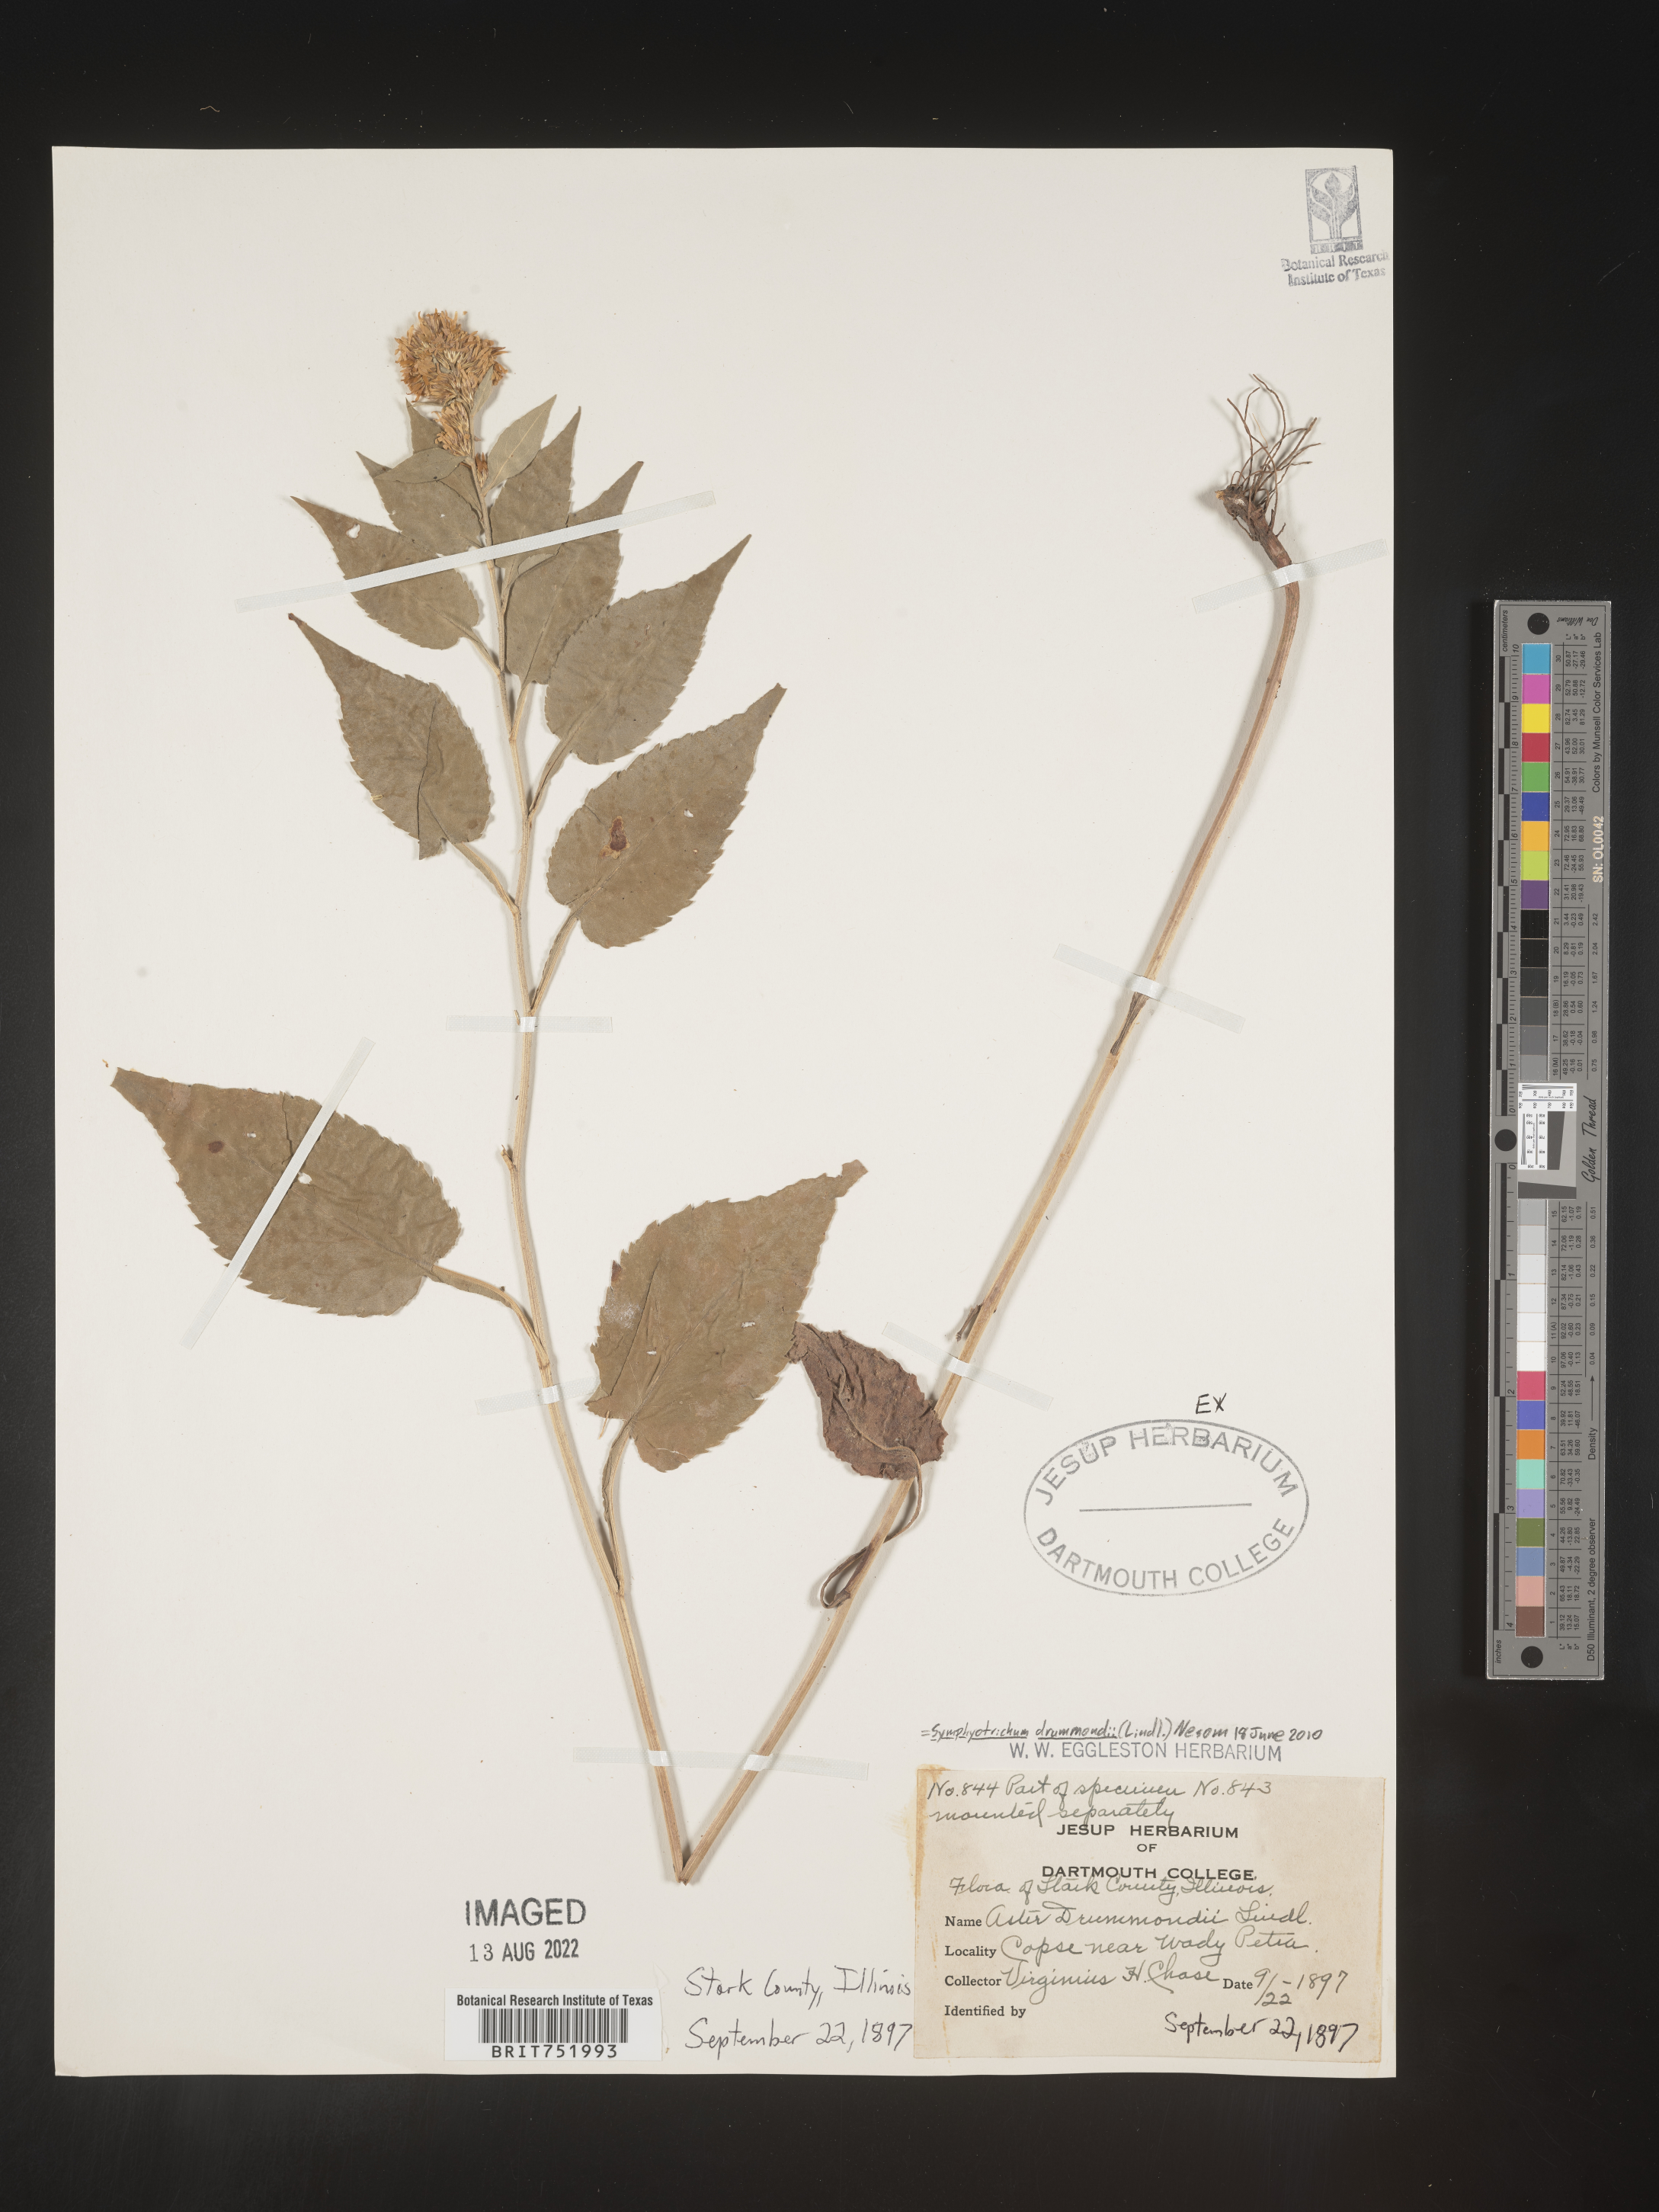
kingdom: Plantae
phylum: Tracheophyta
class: Magnoliopsida
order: Asterales
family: Asteraceae
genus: Symphyotrichum
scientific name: Symphyotrichum drummondii
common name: Drummond's aster
